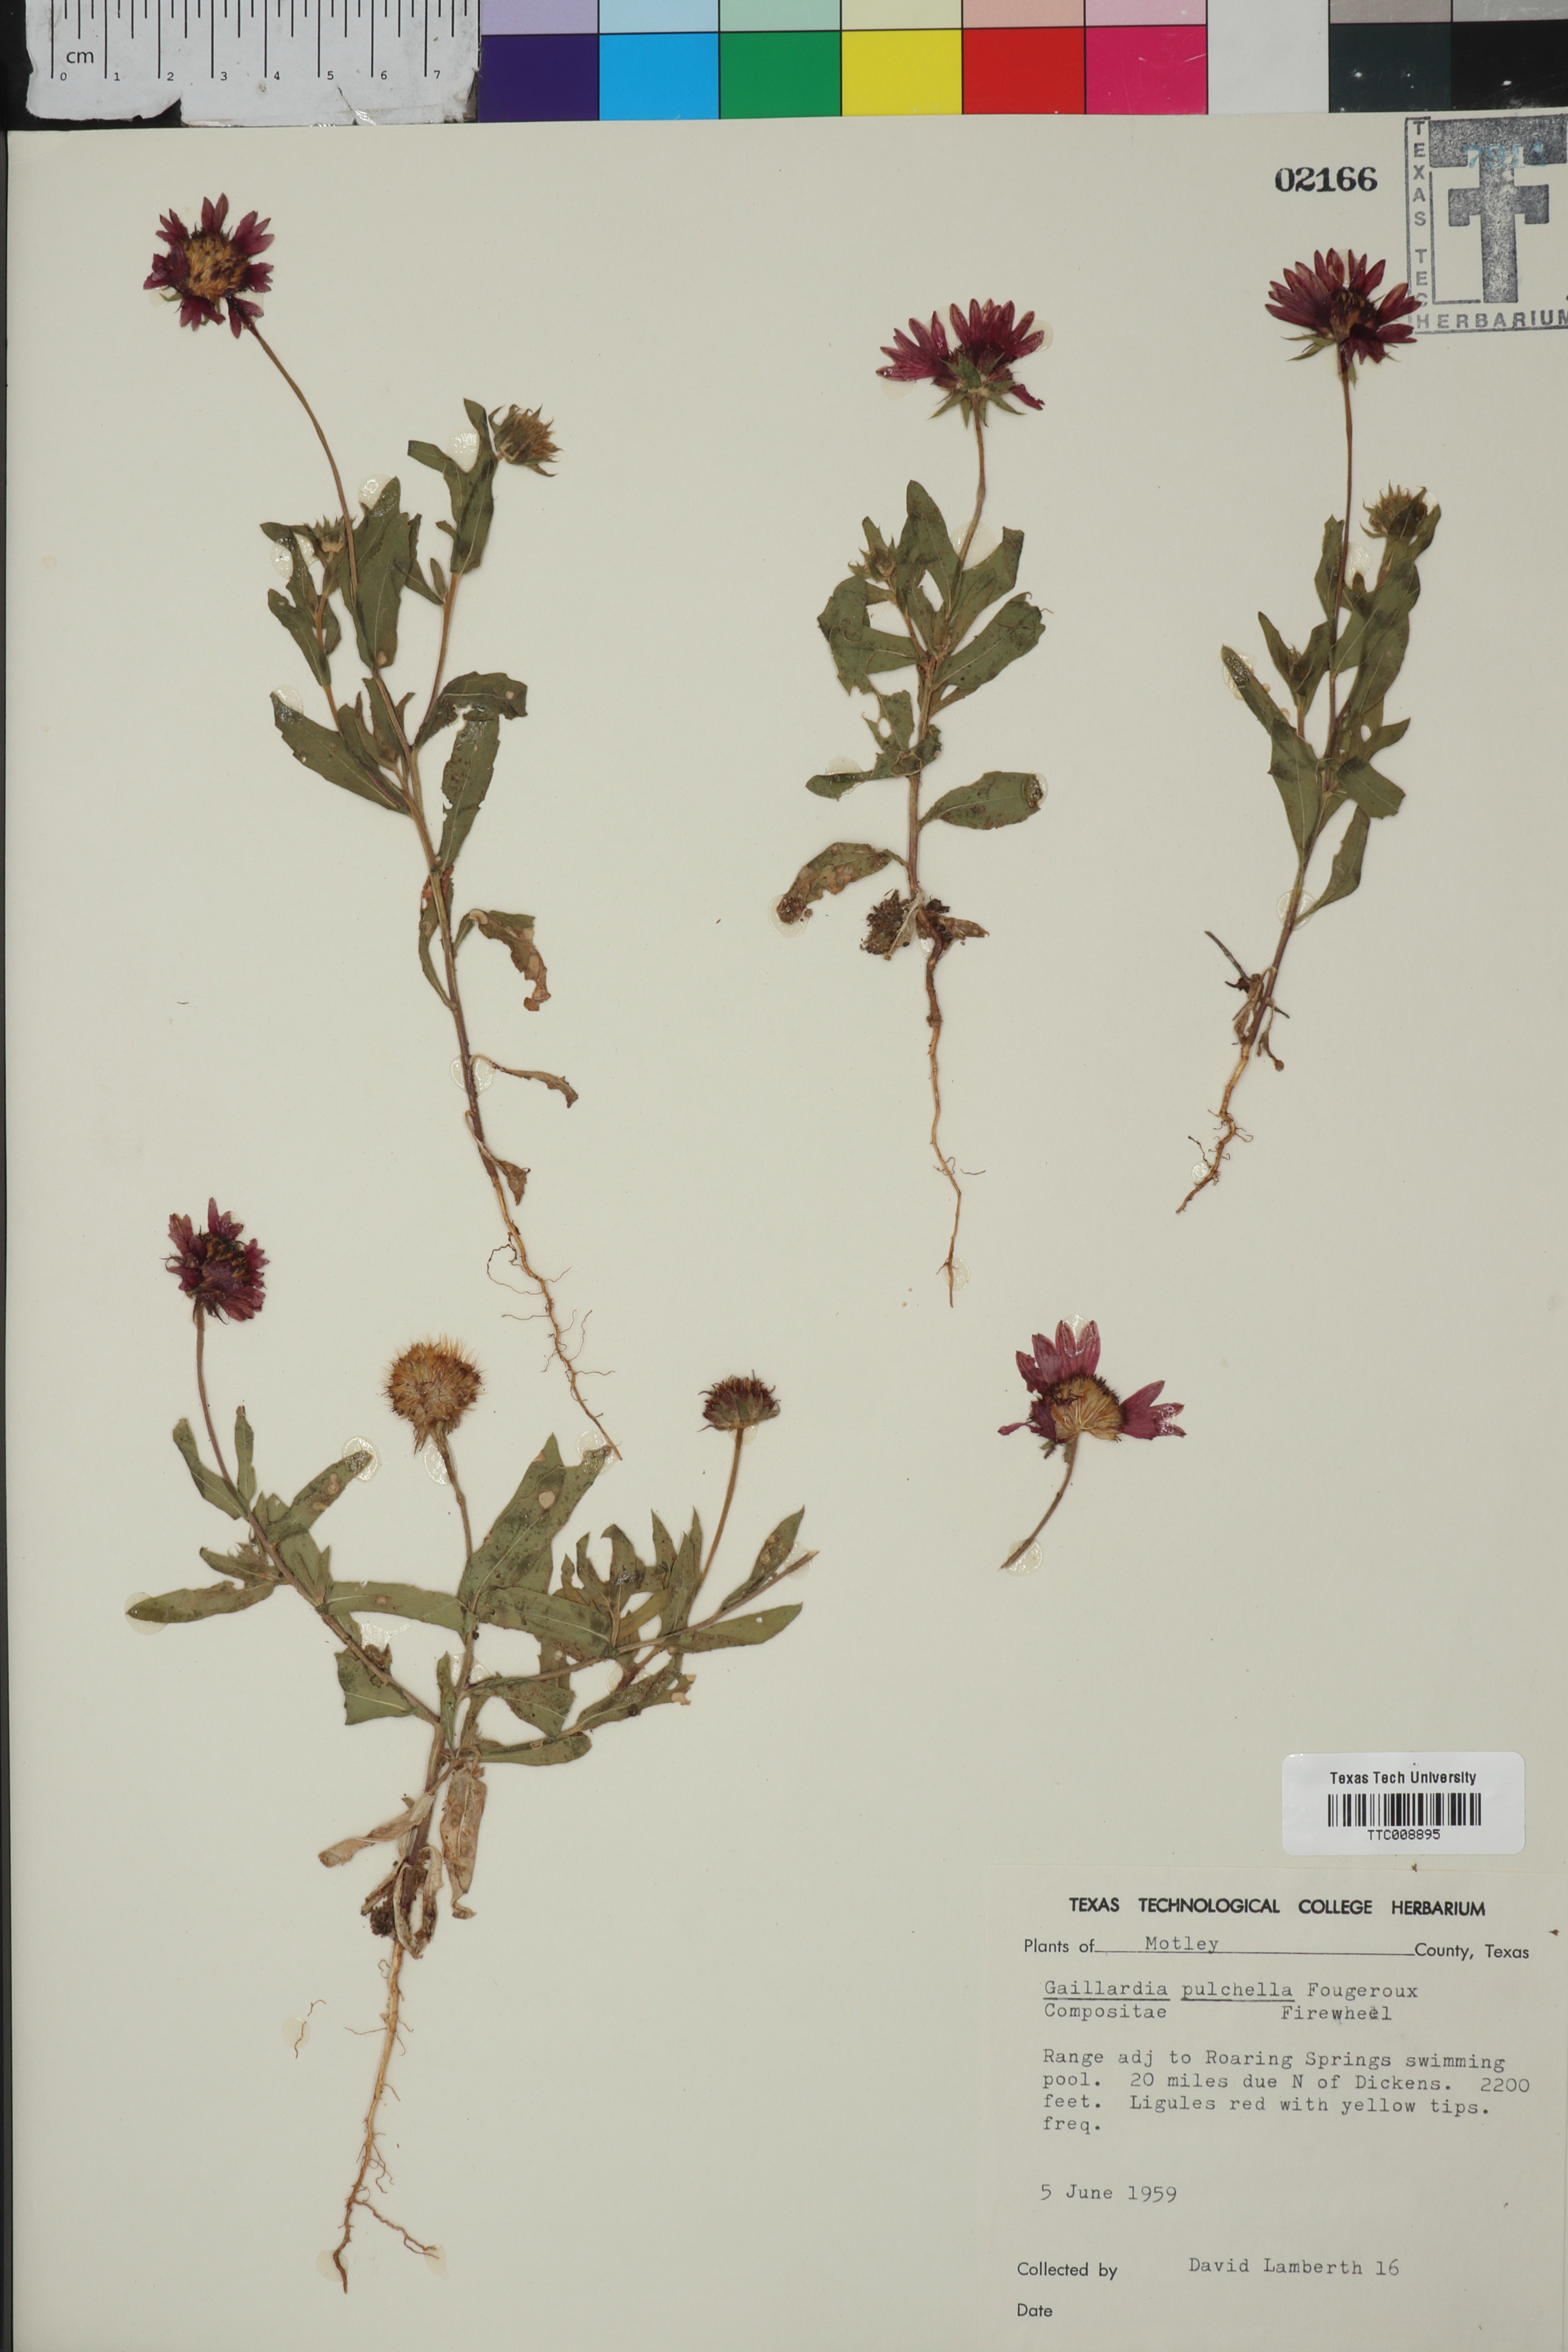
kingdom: Plantae
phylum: Tracheophyta
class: Magnoliopsida
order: Asterales
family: Asteraceae
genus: Gaillardia
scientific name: Gaillardia pulchella
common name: Firewheel
